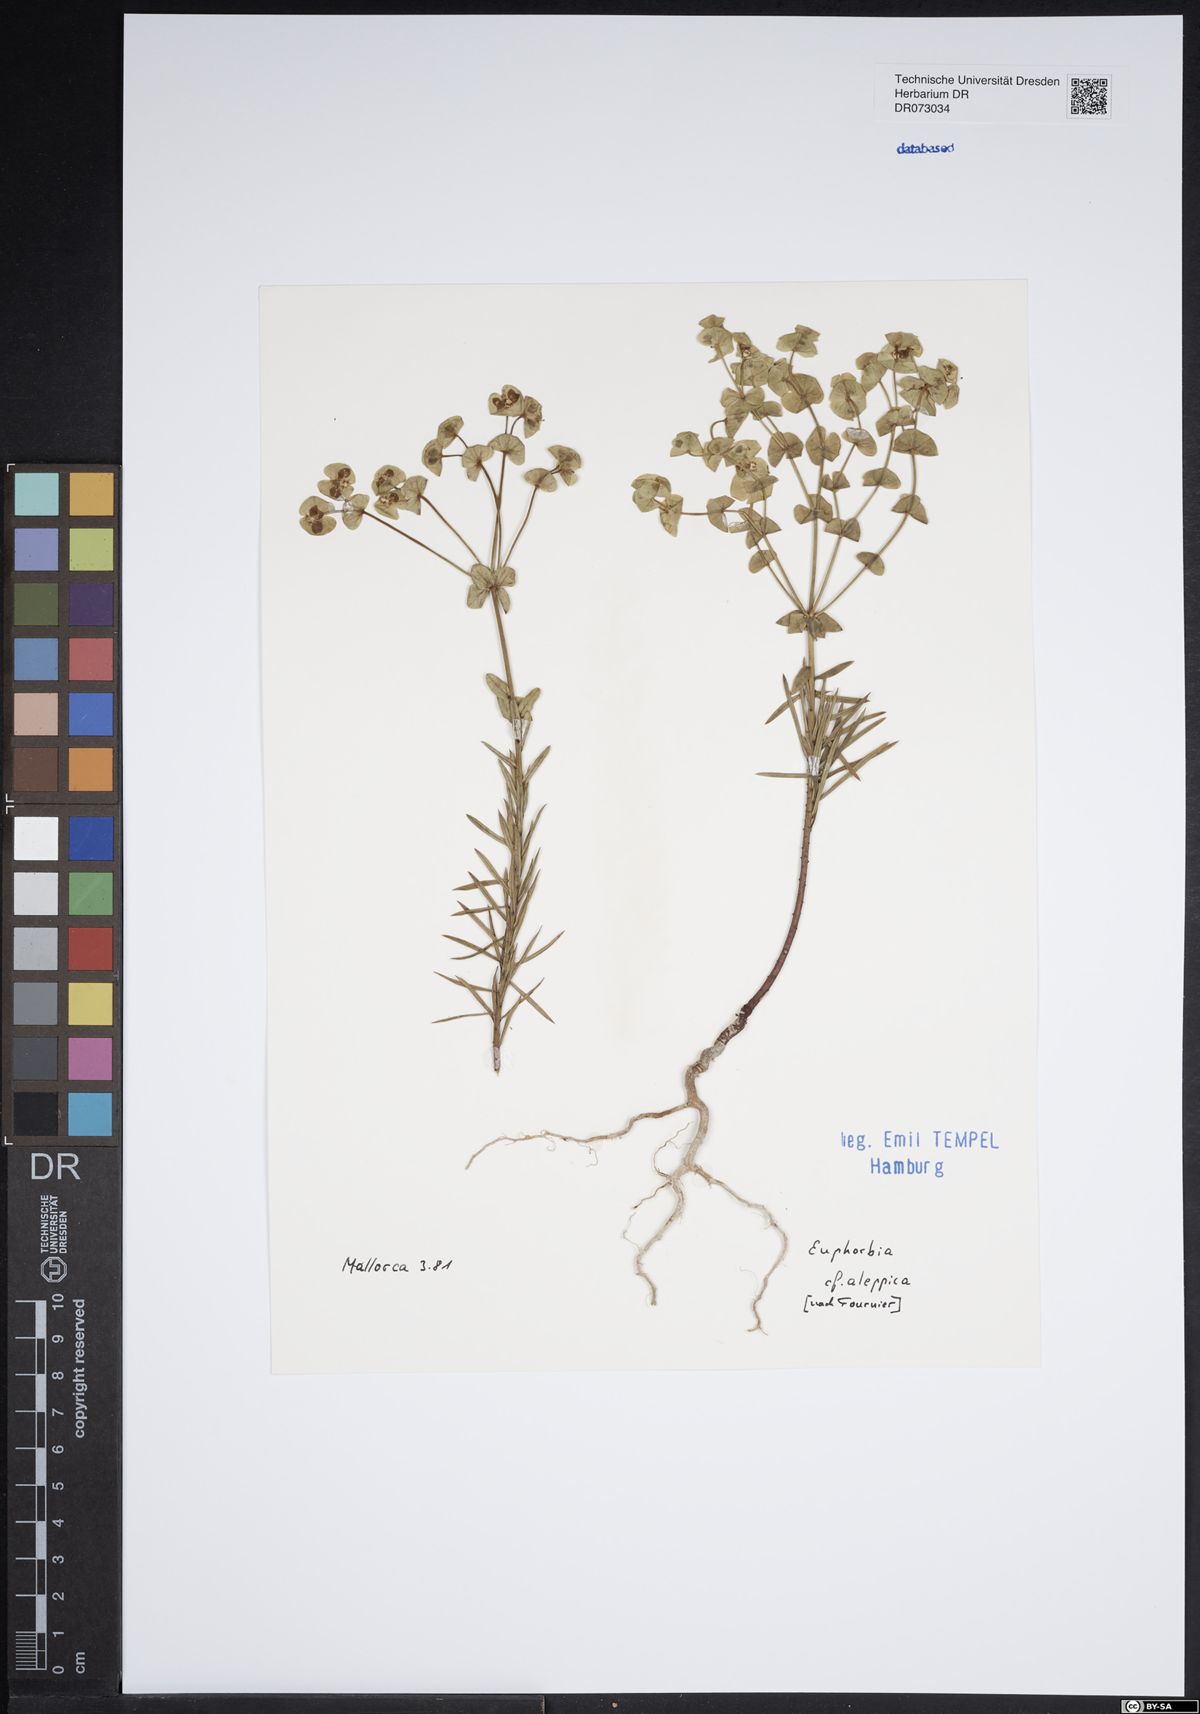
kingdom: Plantae
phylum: Tracheophyta
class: Magnoliopsida
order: Malpighiales
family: Euphorbiaceae
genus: Euphorbia
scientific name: Euphorbia paralias
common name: Sea spurge
